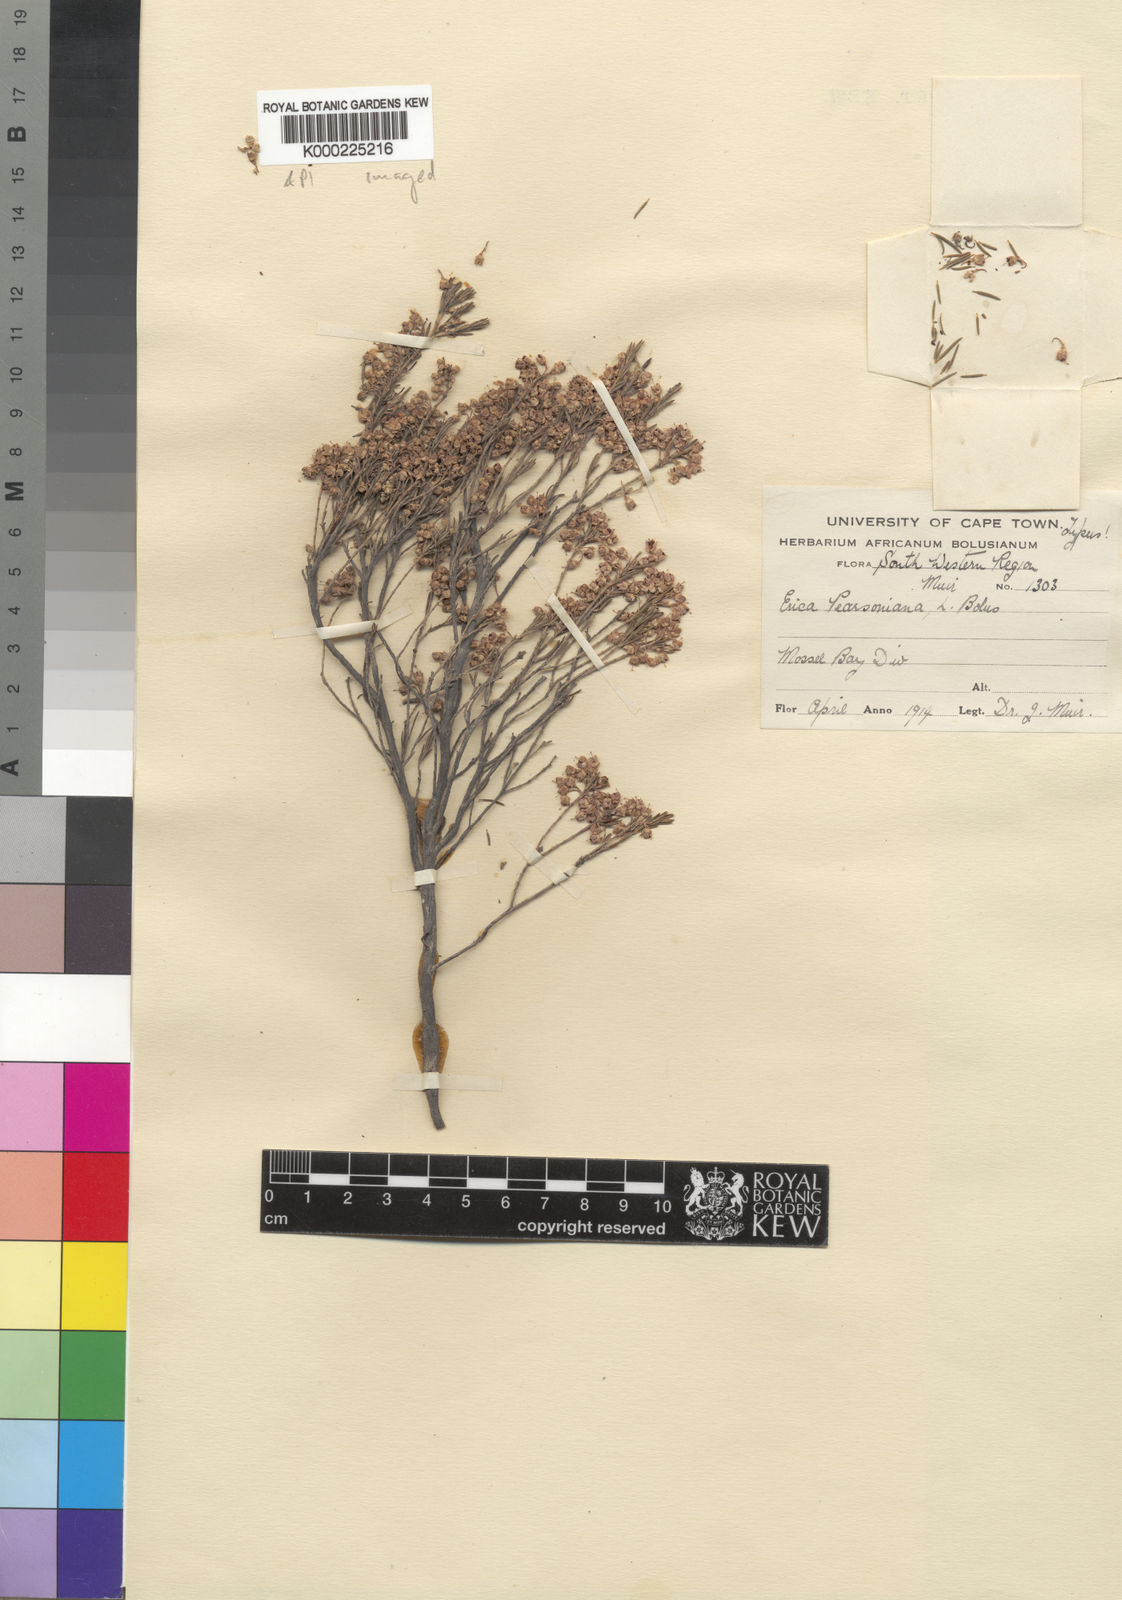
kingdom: Plantae
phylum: Tracheophyta
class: Magnoliopsida
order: Ericales
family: Ericaceae
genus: Erica
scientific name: Erica pearsoniana
